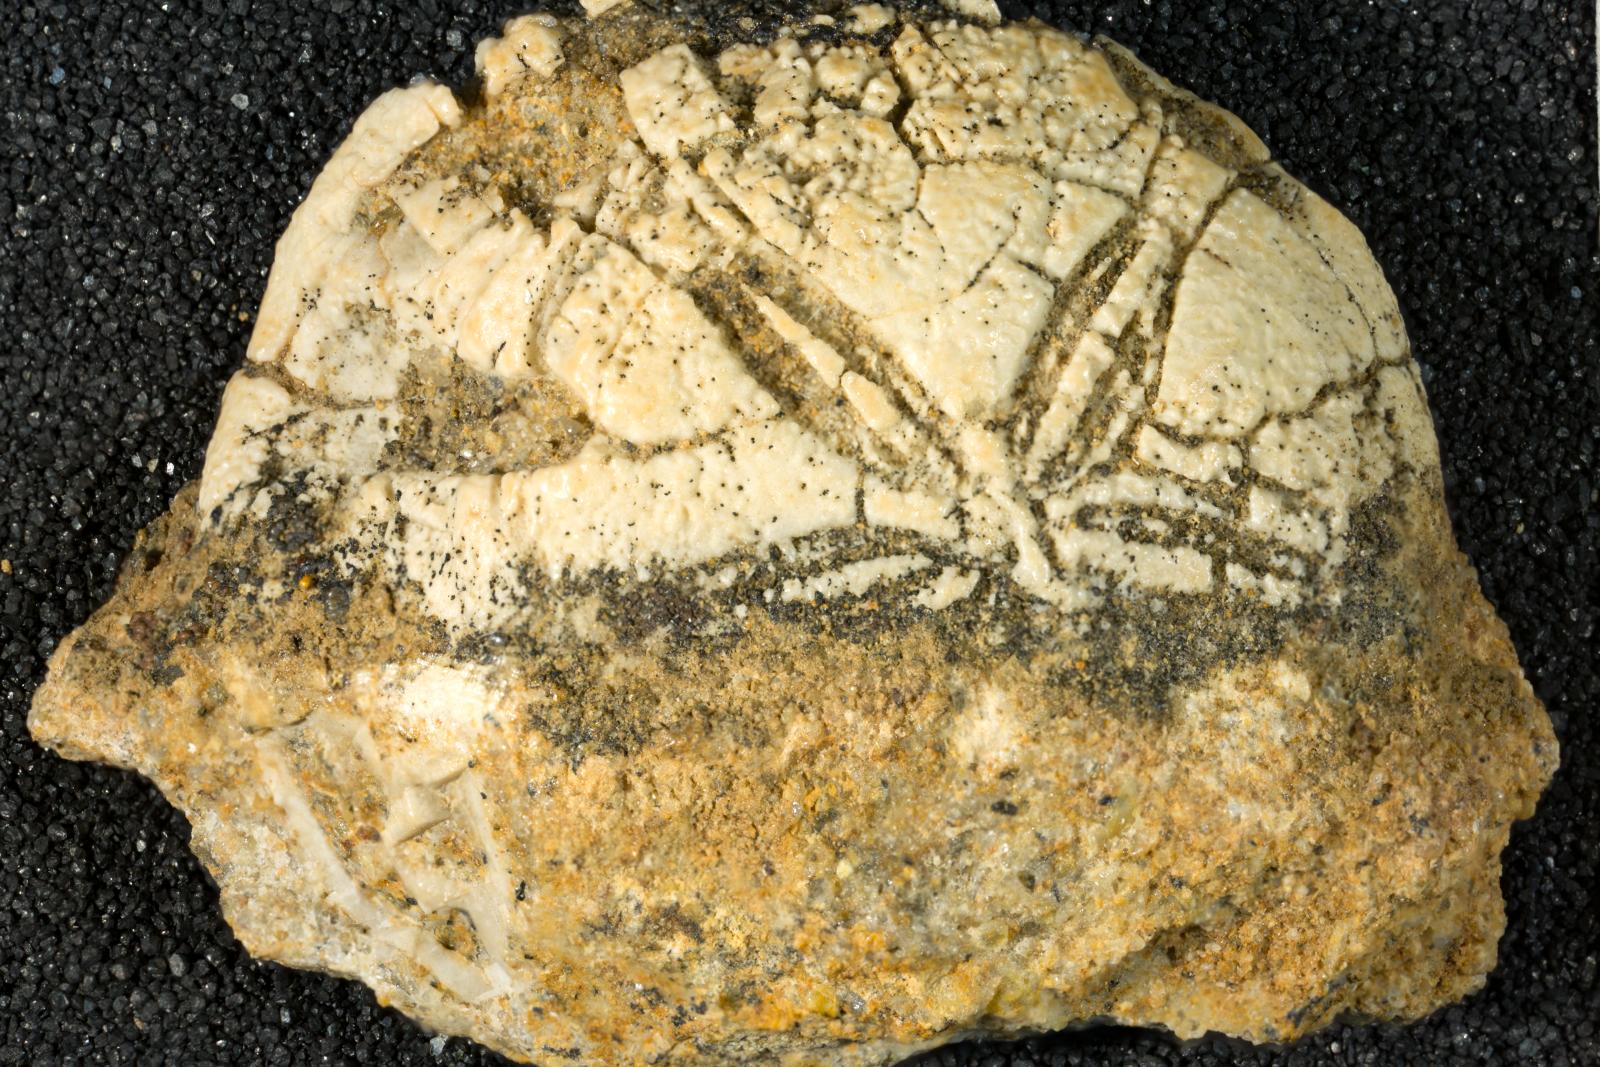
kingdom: Animalia
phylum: Echinodermata
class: Echinoidea
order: Echinolampadacea
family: Cassidulidae
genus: Cassidulus
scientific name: Cassidulus mercedensis
